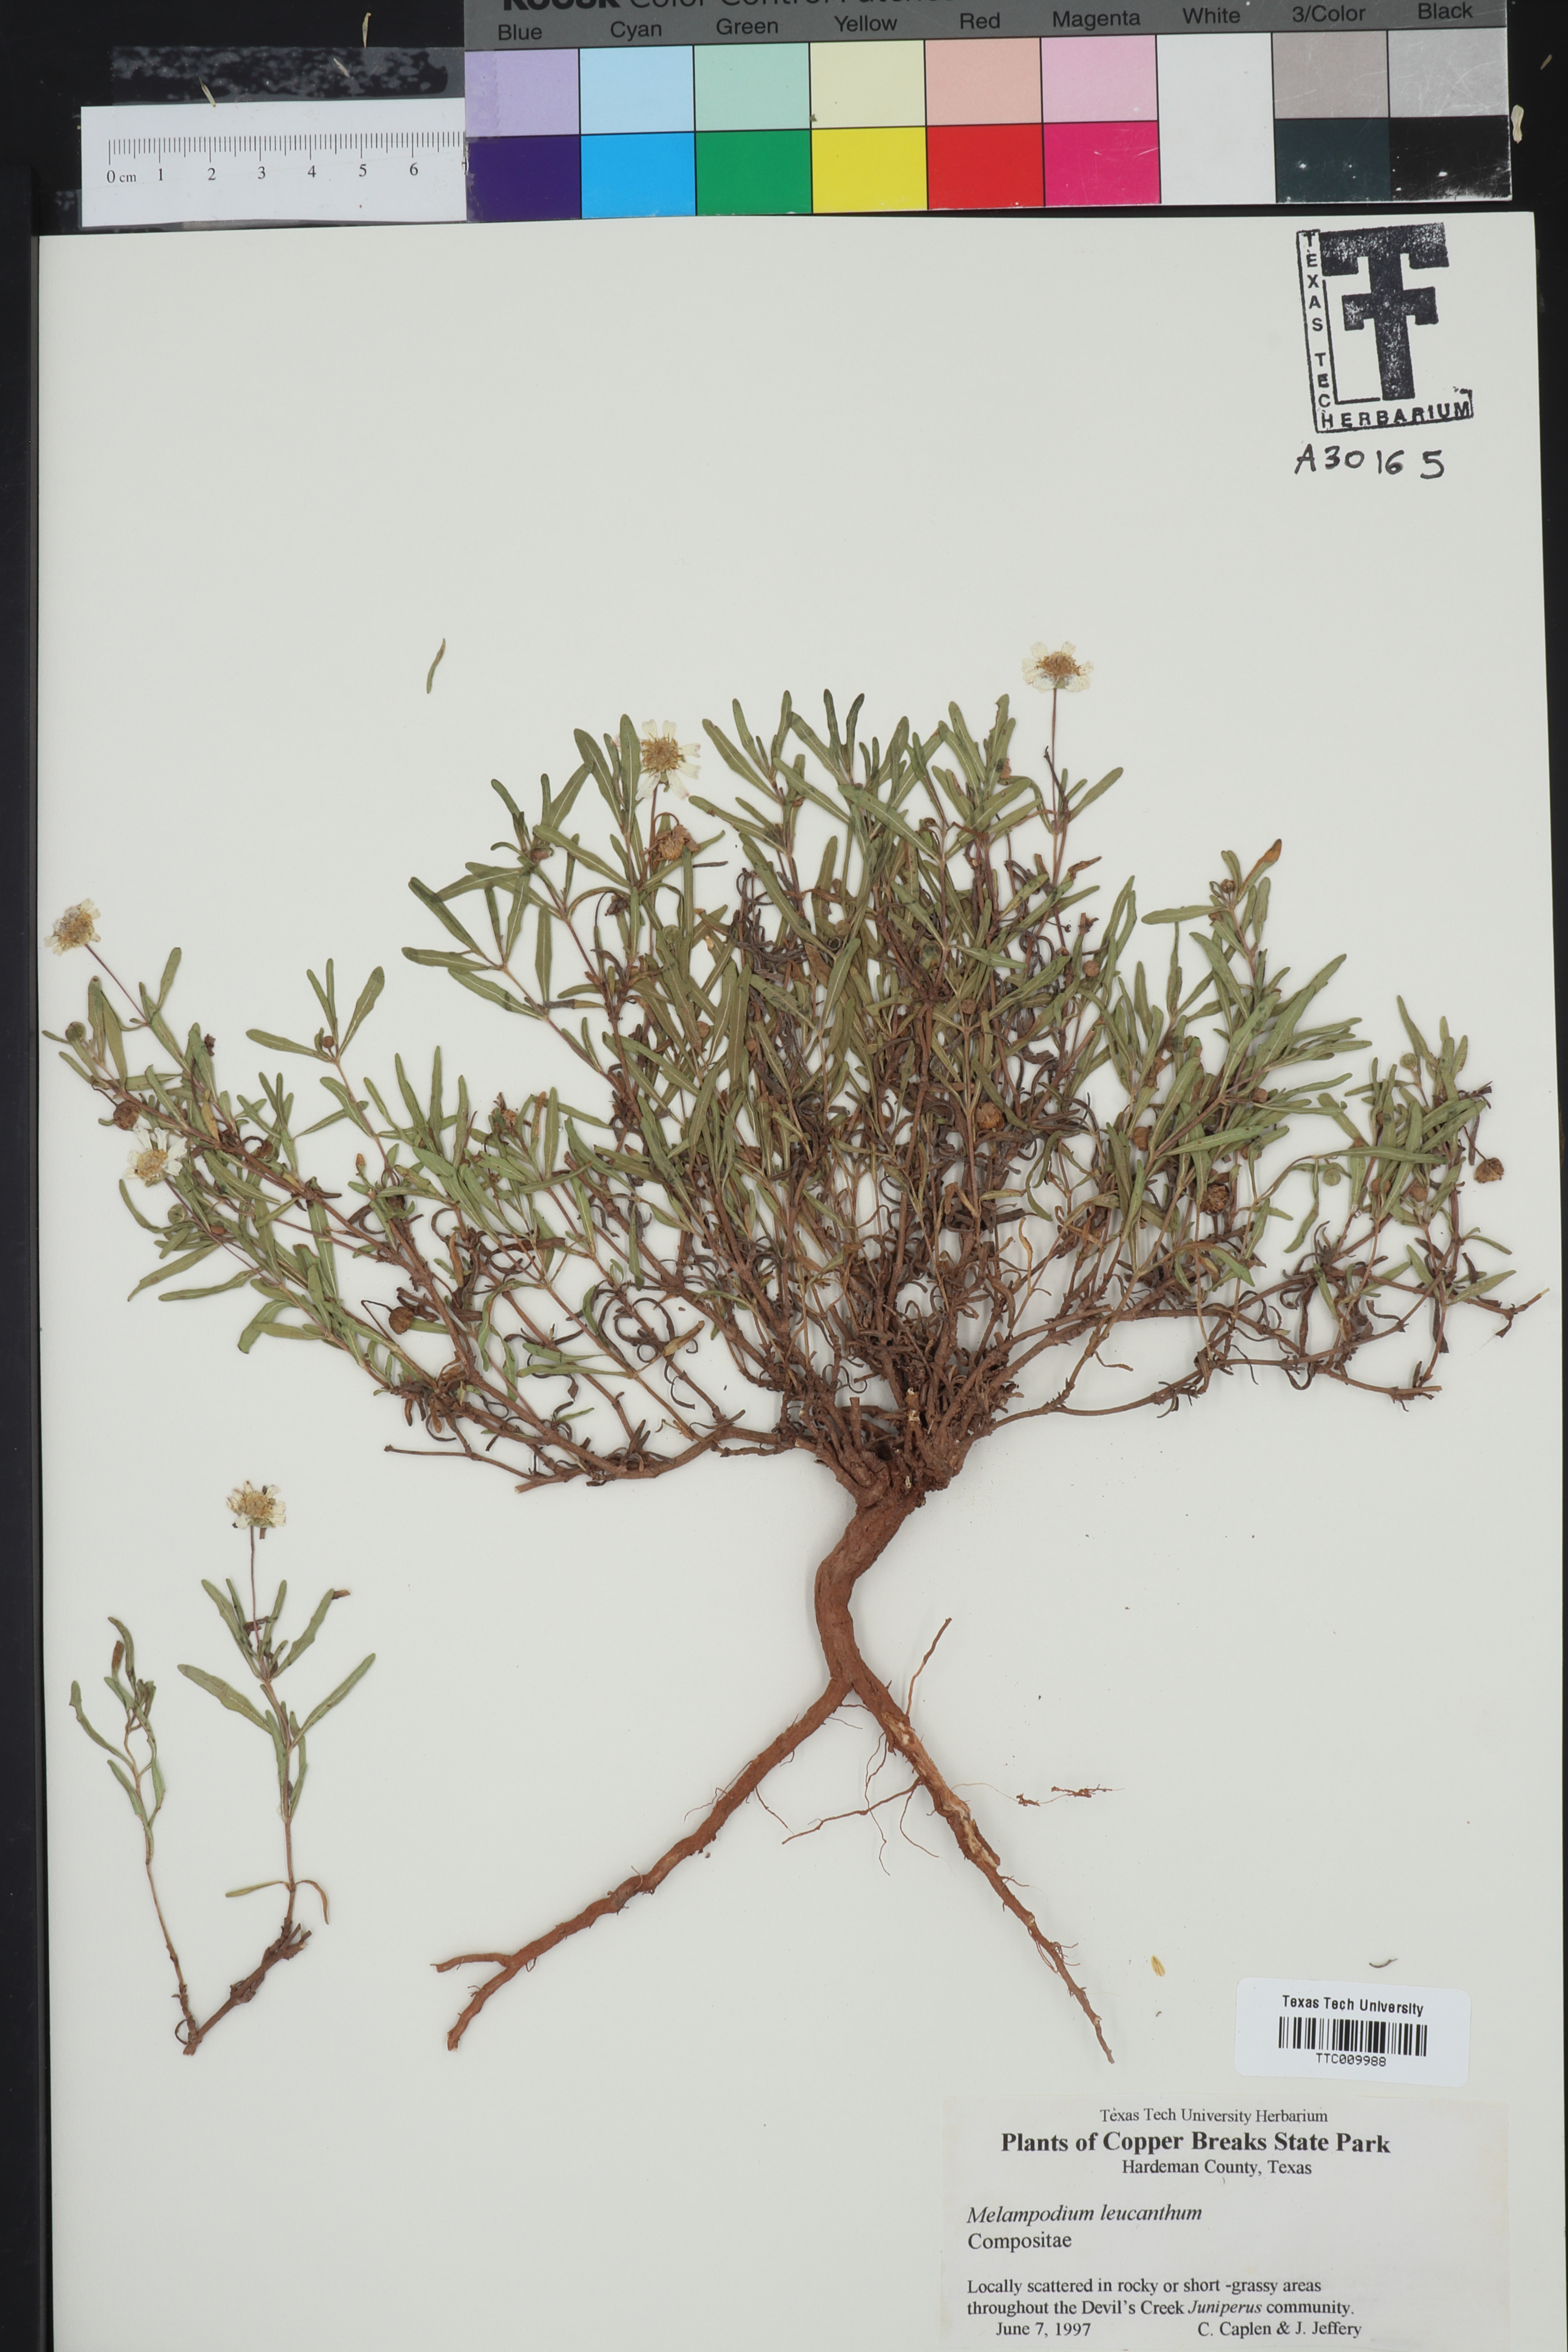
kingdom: Plantae
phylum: Tracheophyta
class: Magnoliopsida
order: Asterales
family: Asteraceae
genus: Melampodium
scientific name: Melampodium leucanthum
